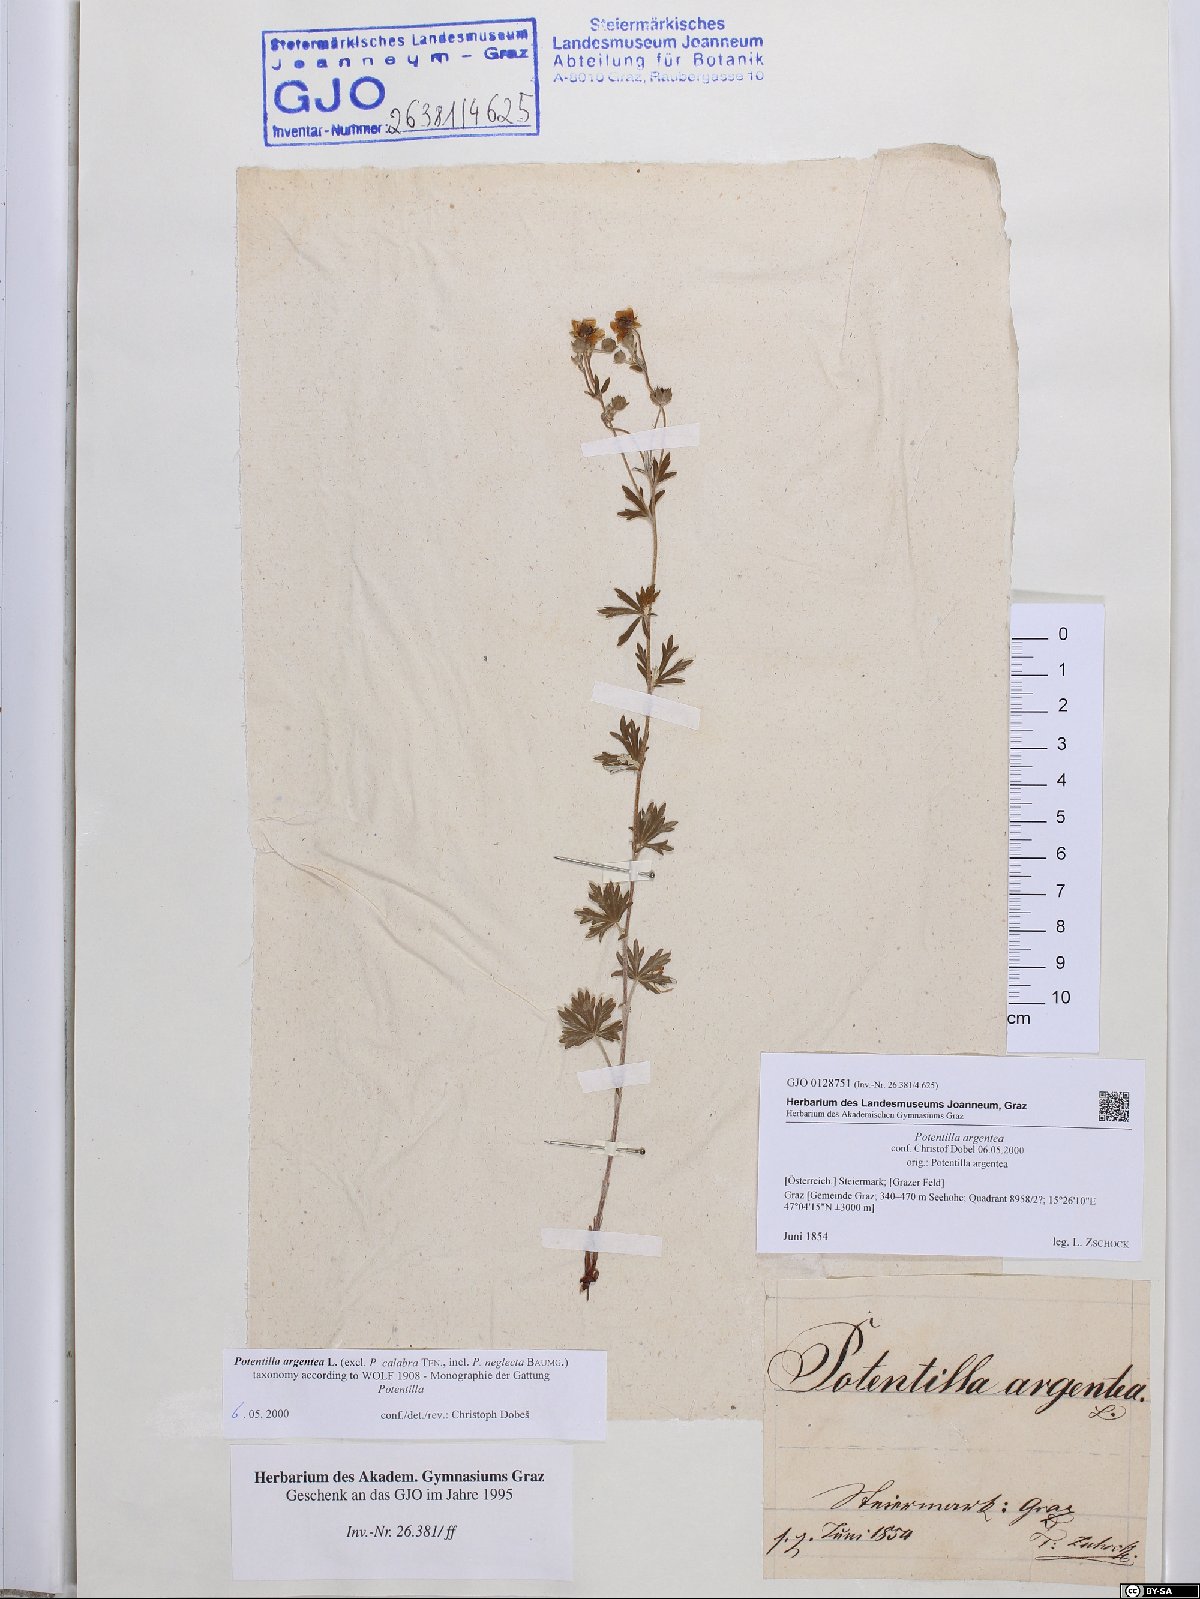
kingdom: Plantae
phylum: Tracheophyta
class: Magnoliopsida
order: Rosales
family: Rosaceae
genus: Potentilla
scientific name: Potentilla argentea
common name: Hoary cinquefoil
